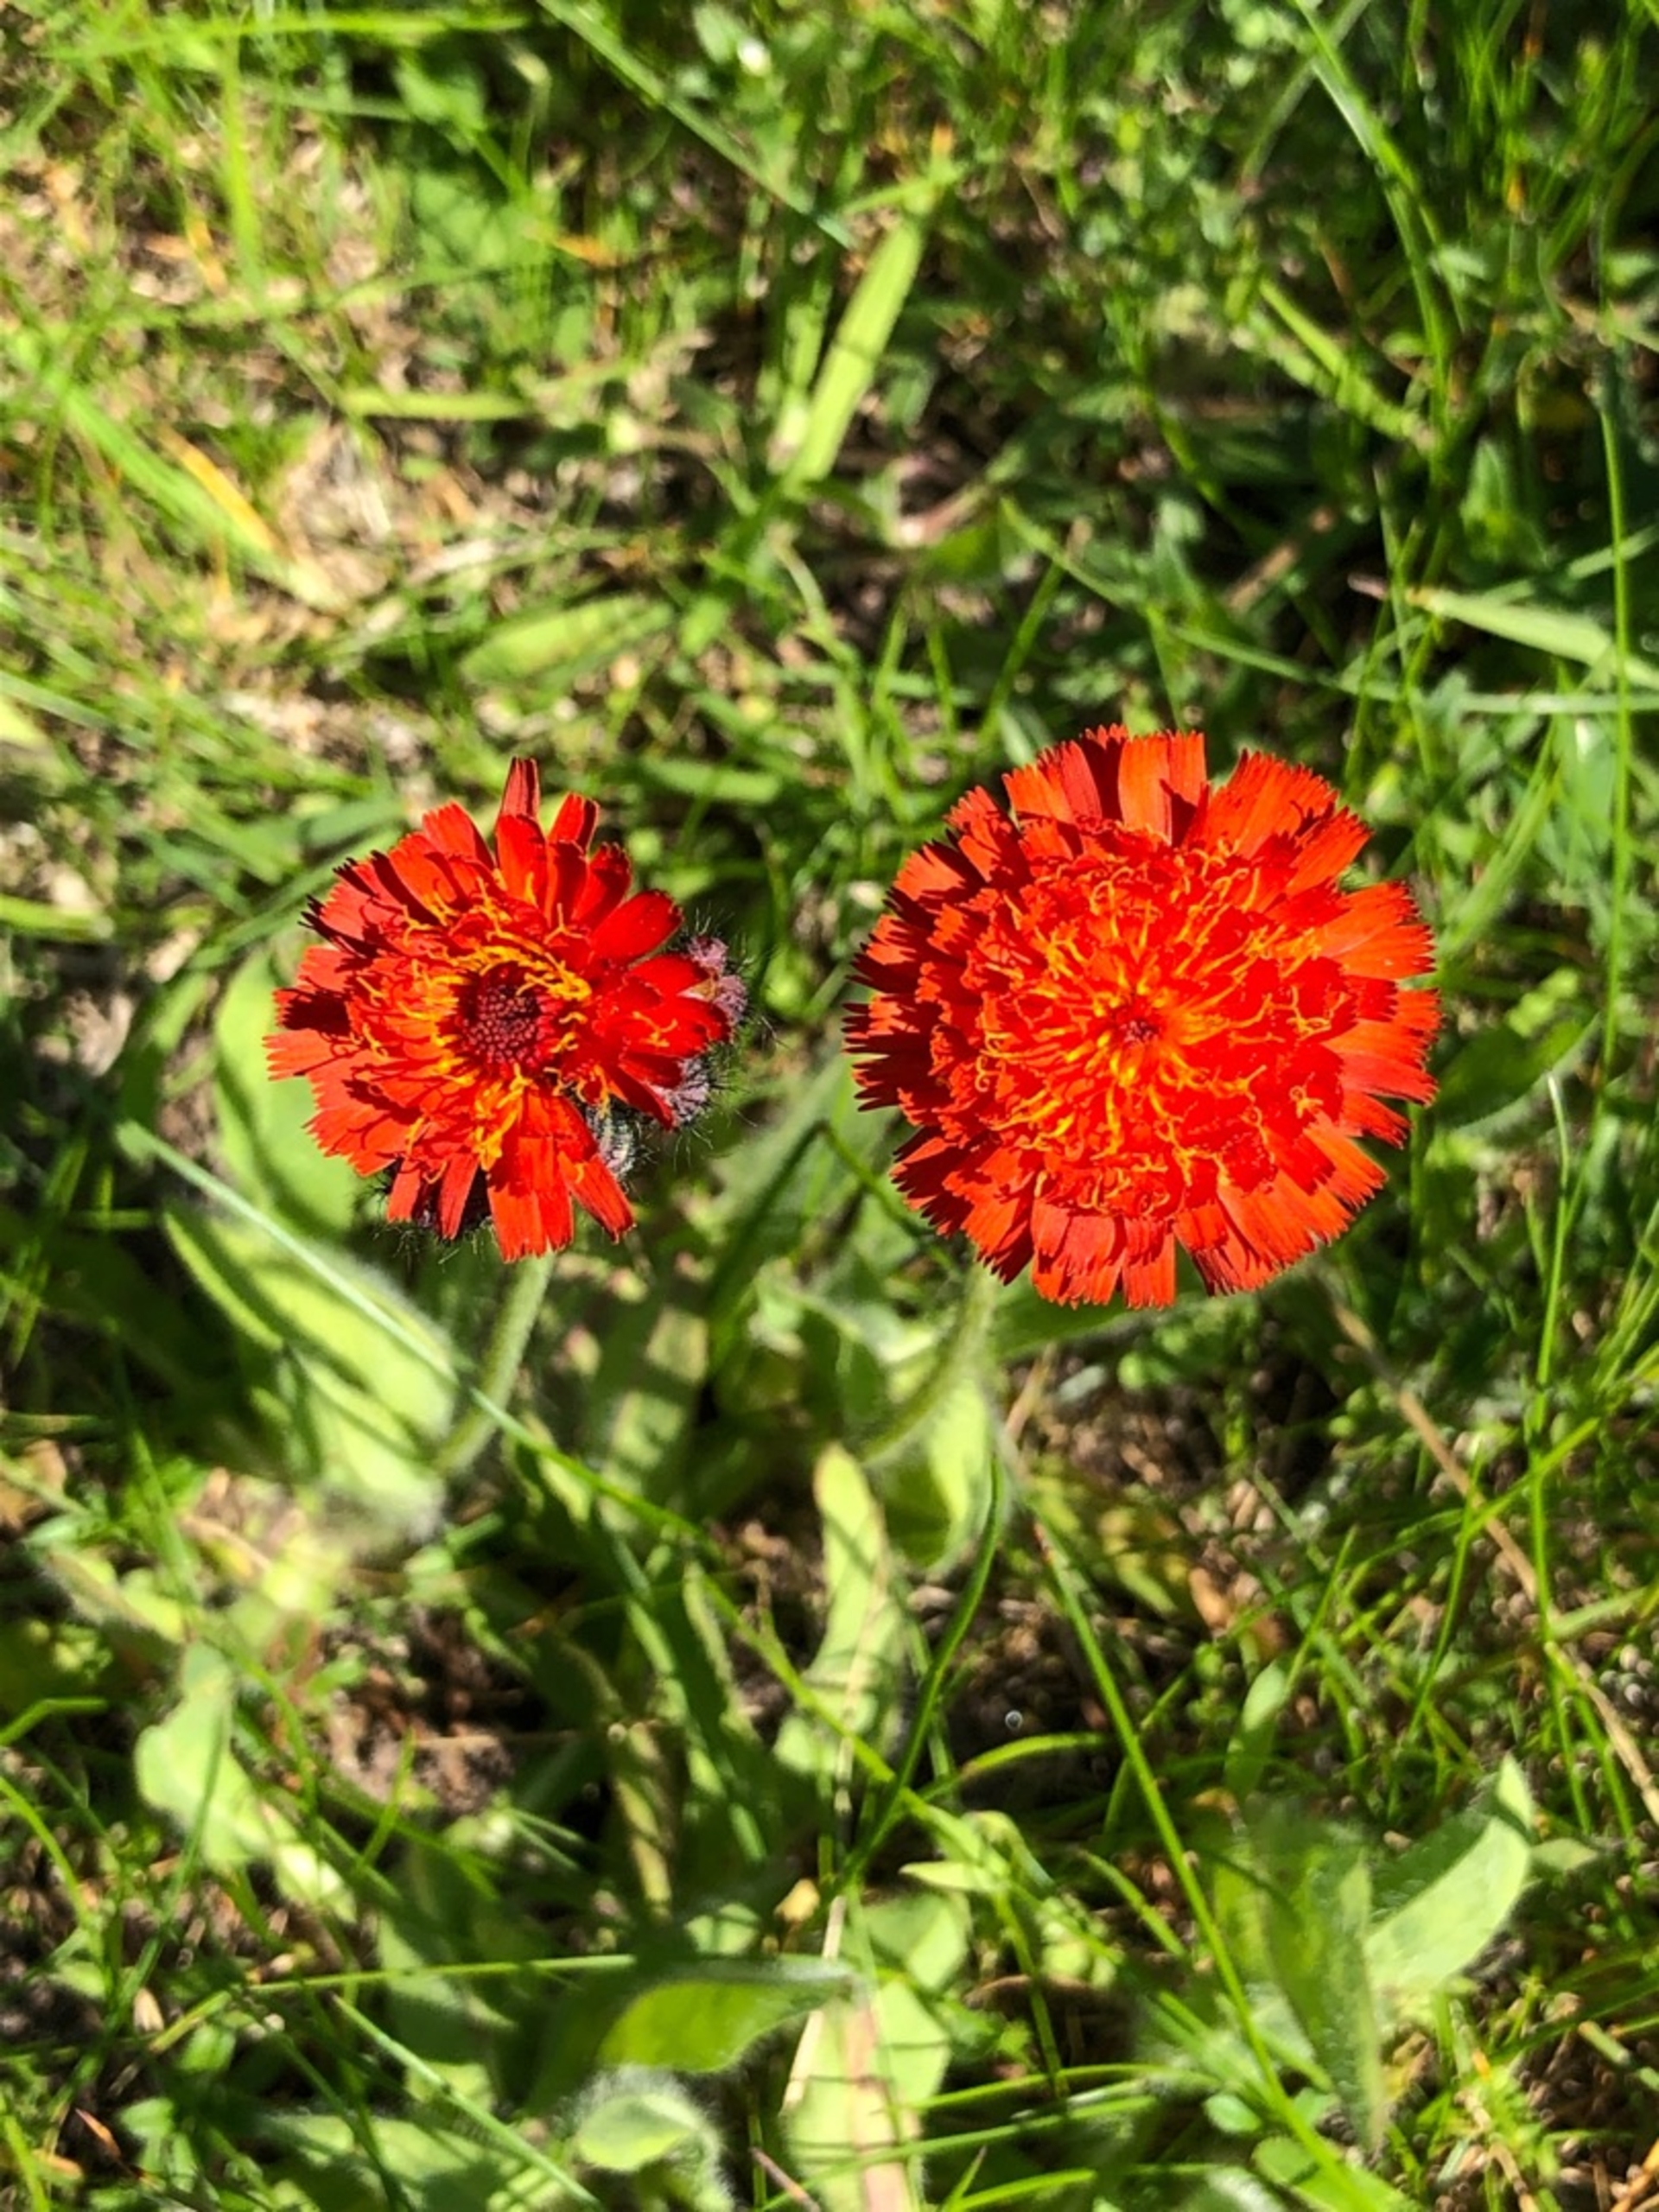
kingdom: Plantae
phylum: Tracheophyta
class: Magnoliopsida
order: Asterales
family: Asteraceae
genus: Pilosella
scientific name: Pilosella aurantiaca
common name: Pomerans-høgeurt
